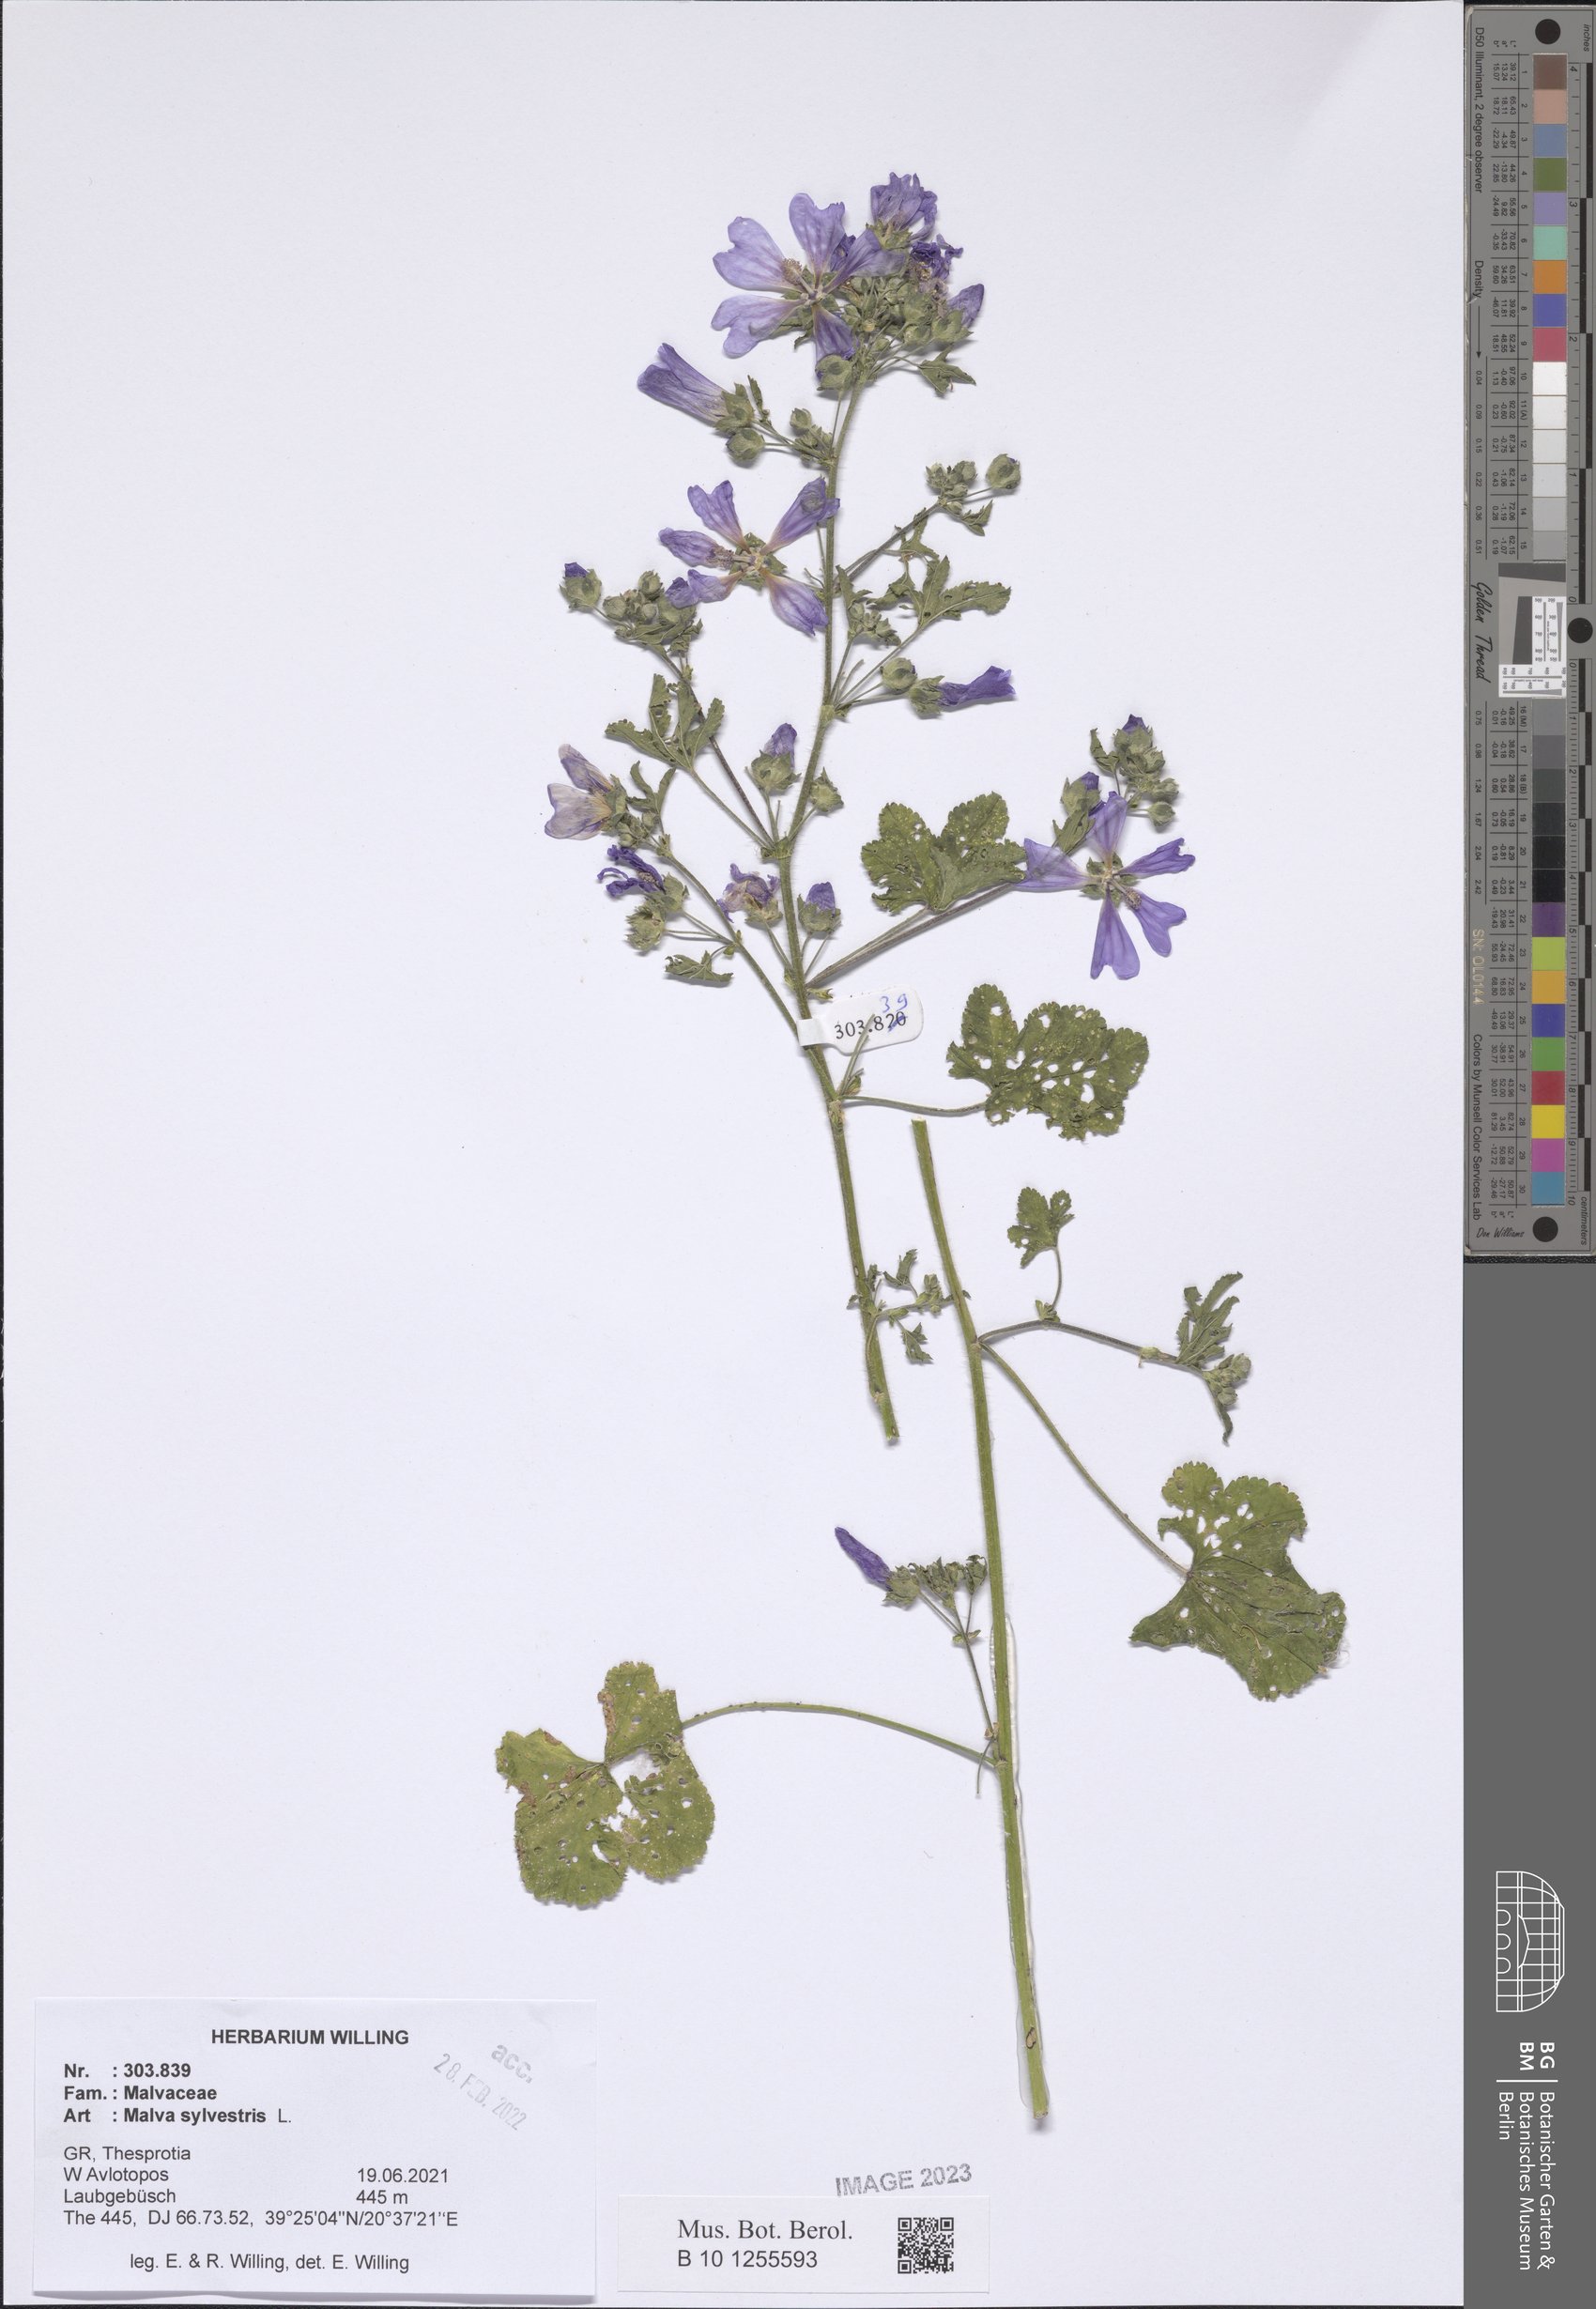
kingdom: Plantae
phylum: Tracheophyta
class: Magnoliopsida
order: Malvales
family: Malvaceae
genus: Malva
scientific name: Malva sylvestris
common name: Common mallow
